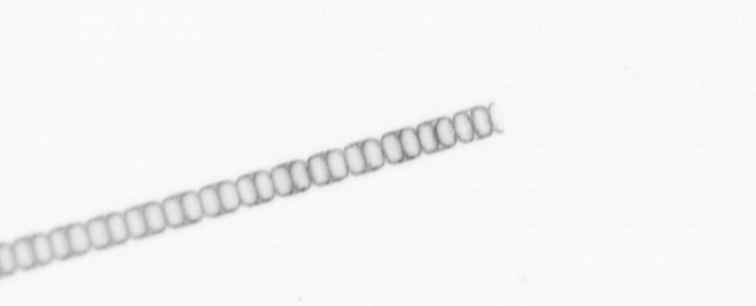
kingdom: Chromista
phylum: Ochrophyta
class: Bacillariophyceae
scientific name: Bacillariophyceae
